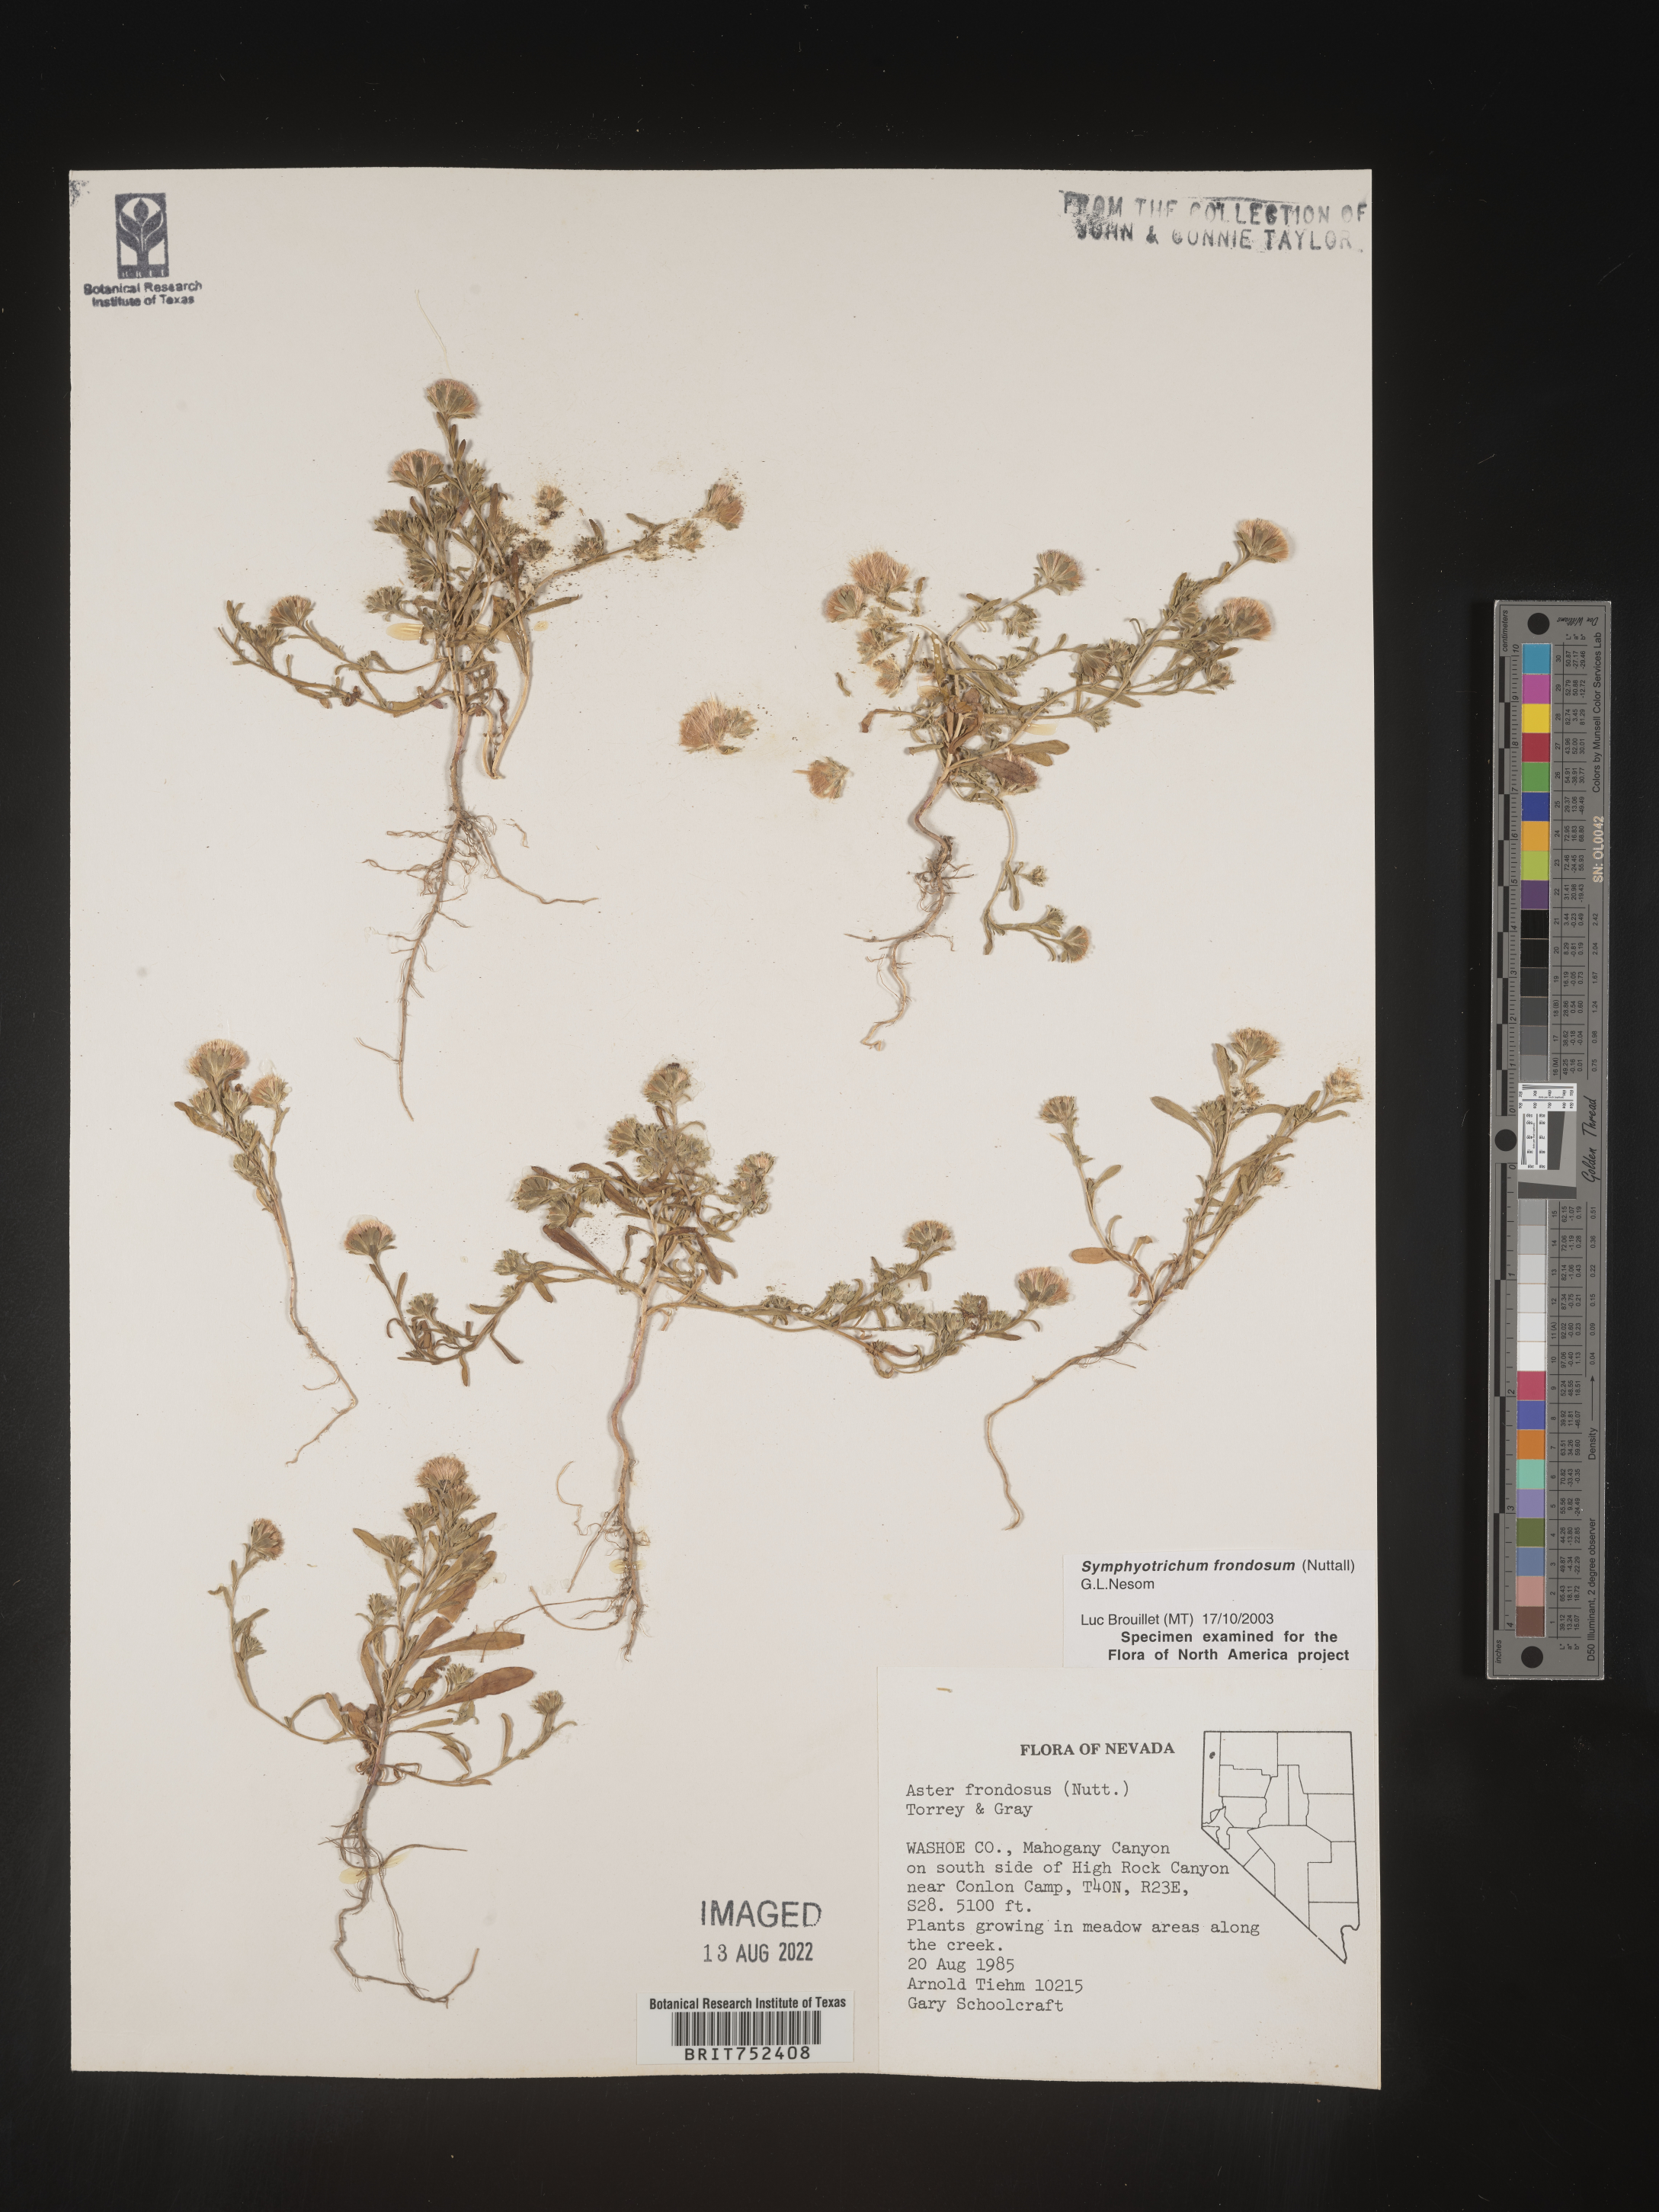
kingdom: Plantae
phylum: Tracheophyta
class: Magnoliopsida
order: Asterales
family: Asteraceae
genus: Symphyotrichum
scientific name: Symphyotrichum frondosum
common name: Leafy aster
